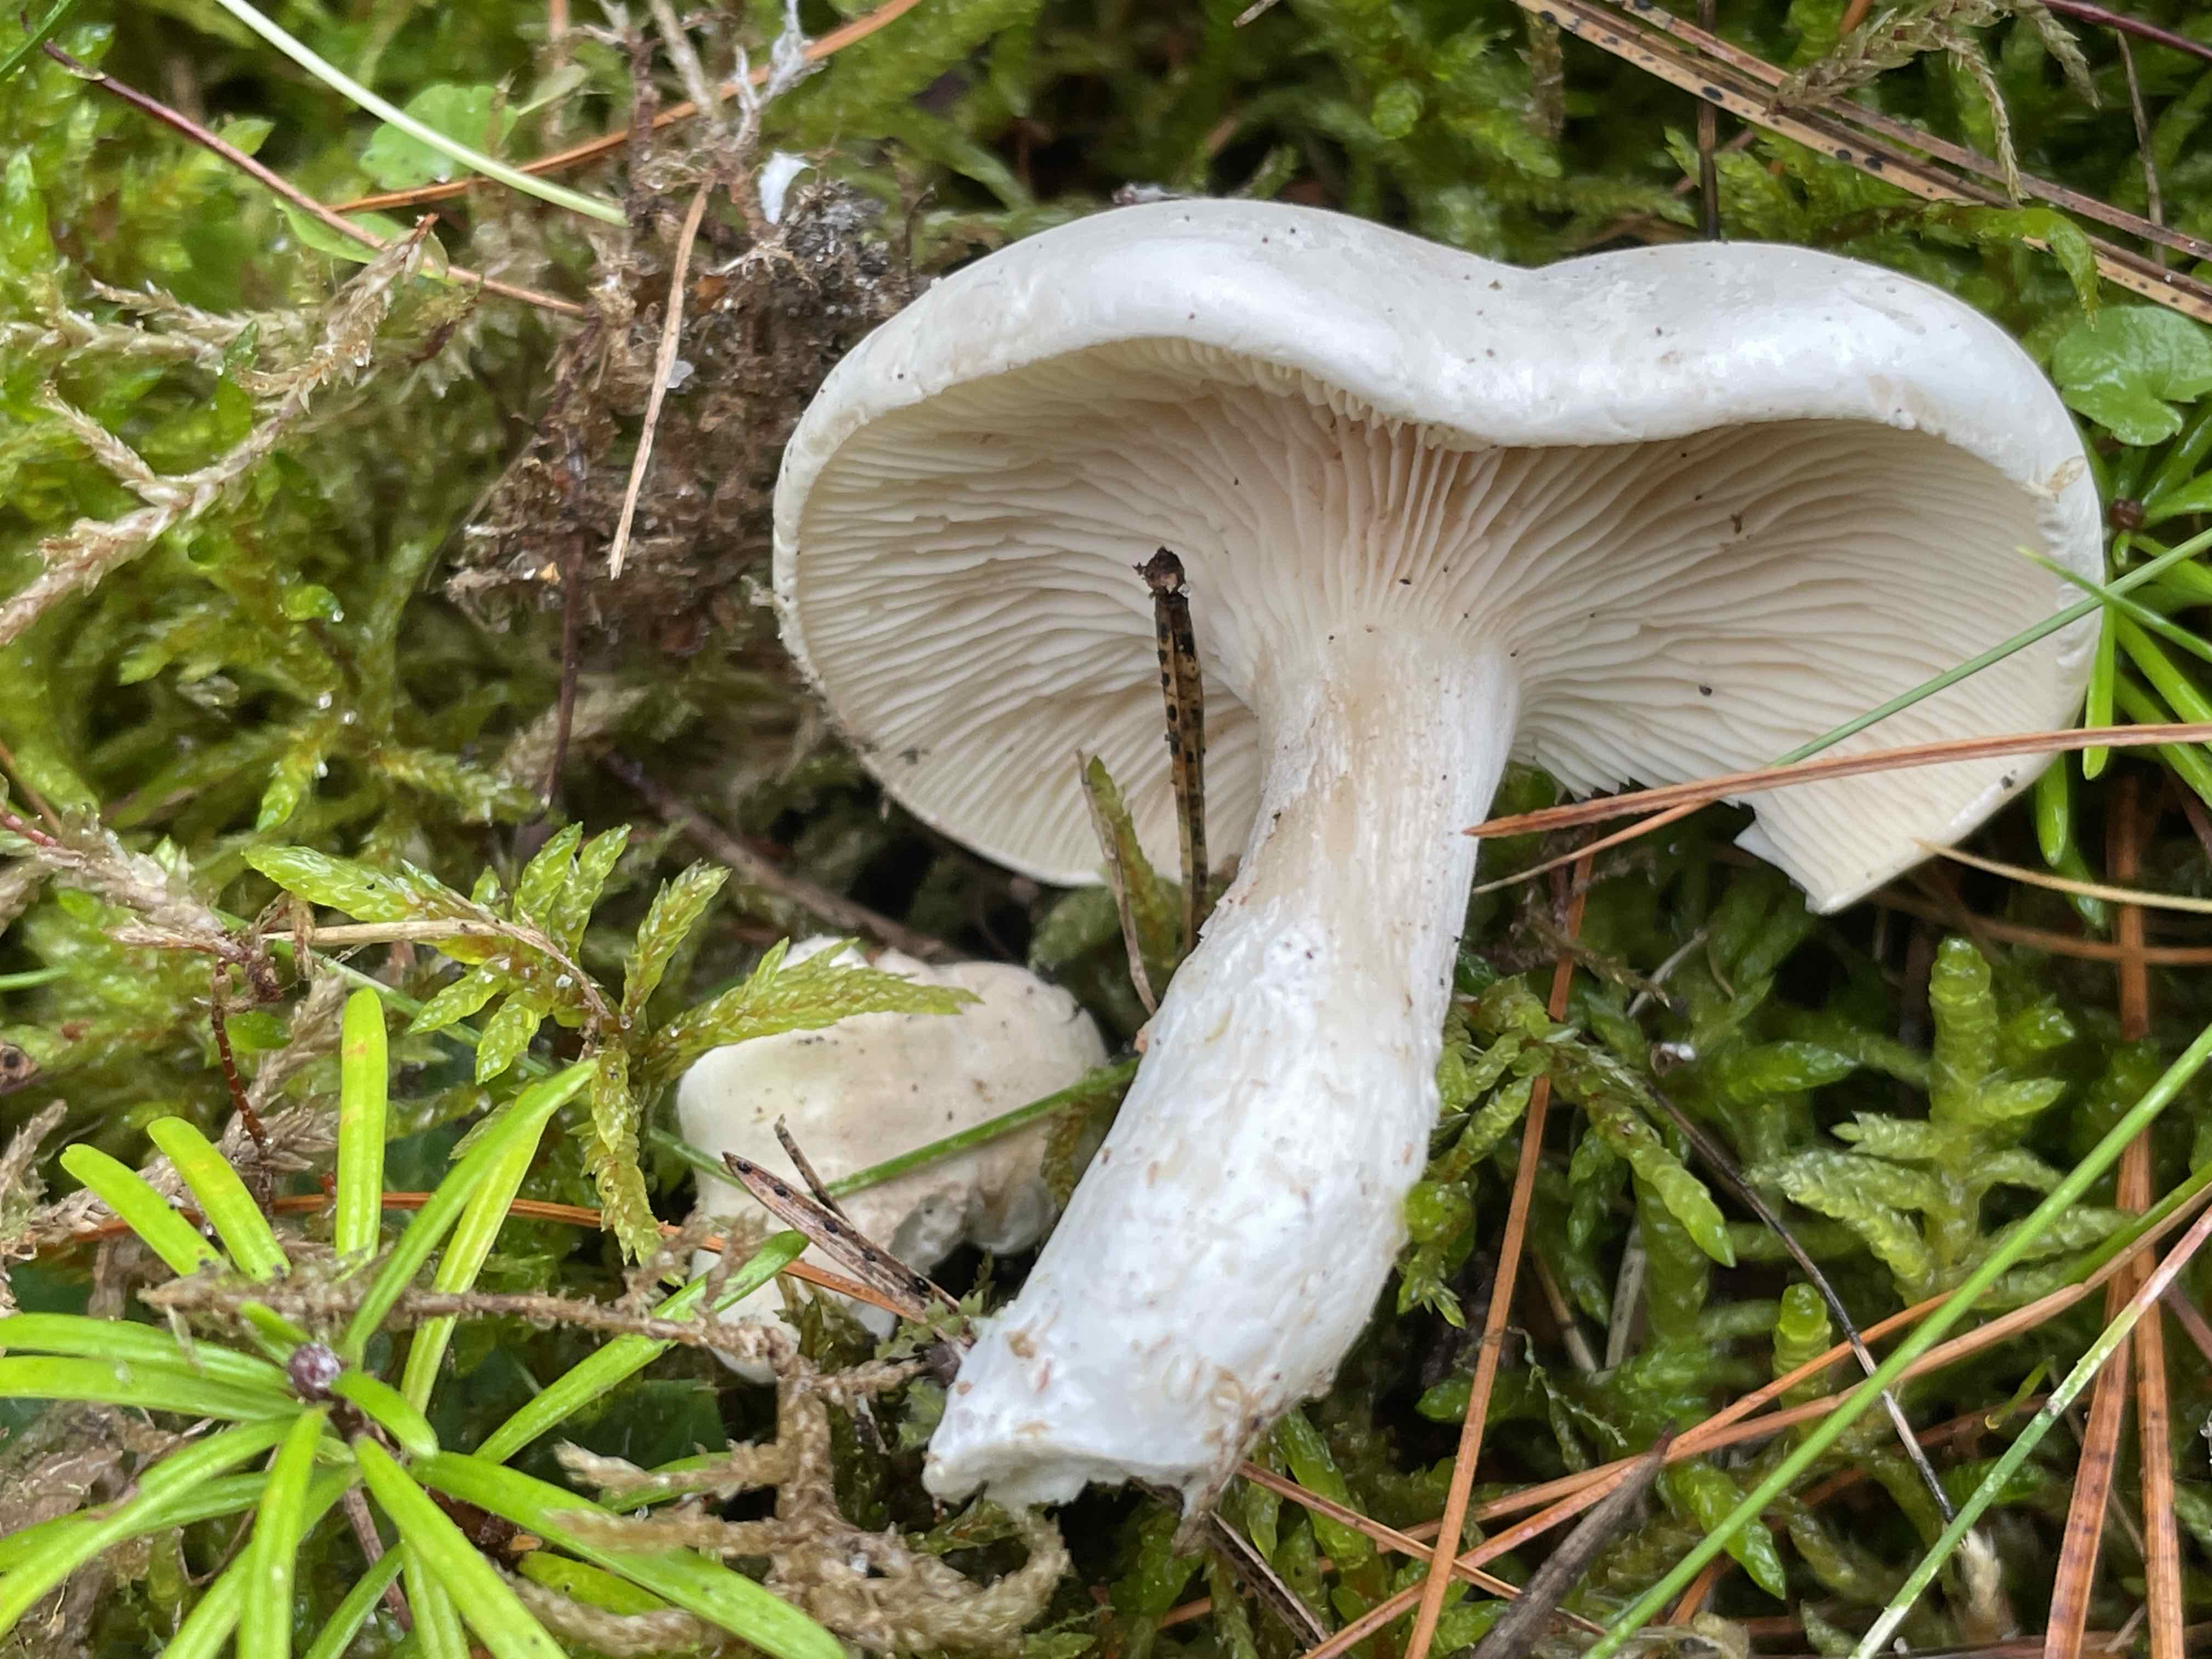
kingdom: Fungi
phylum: Basidiomycota
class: Agaricomycetes
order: Agaricales
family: Entolomataceae
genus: Clitopilus
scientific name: Clitopilus prunulus
